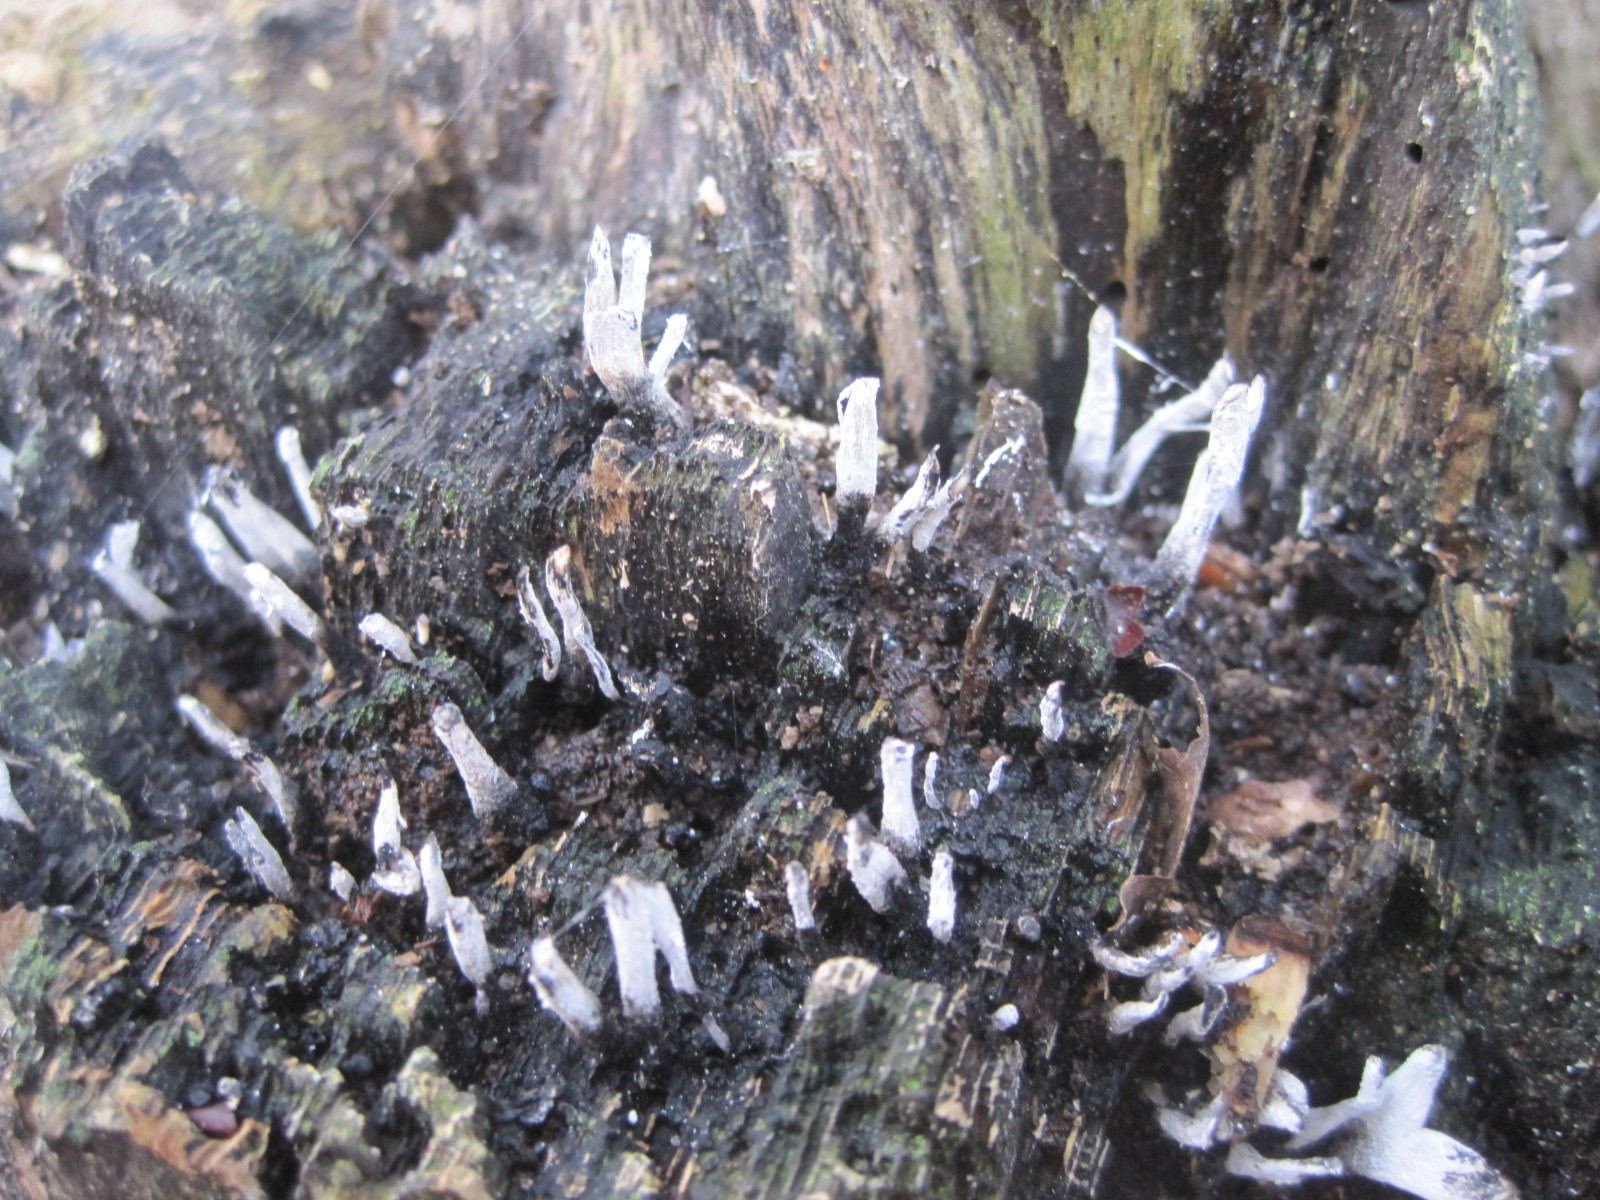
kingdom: Fungi
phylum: Ascomycota
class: Sordariomycetes
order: Xylariales
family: Xylariaceae
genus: Xylaria
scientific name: Xylaria hypoxylon
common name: grenet stødsvamp
